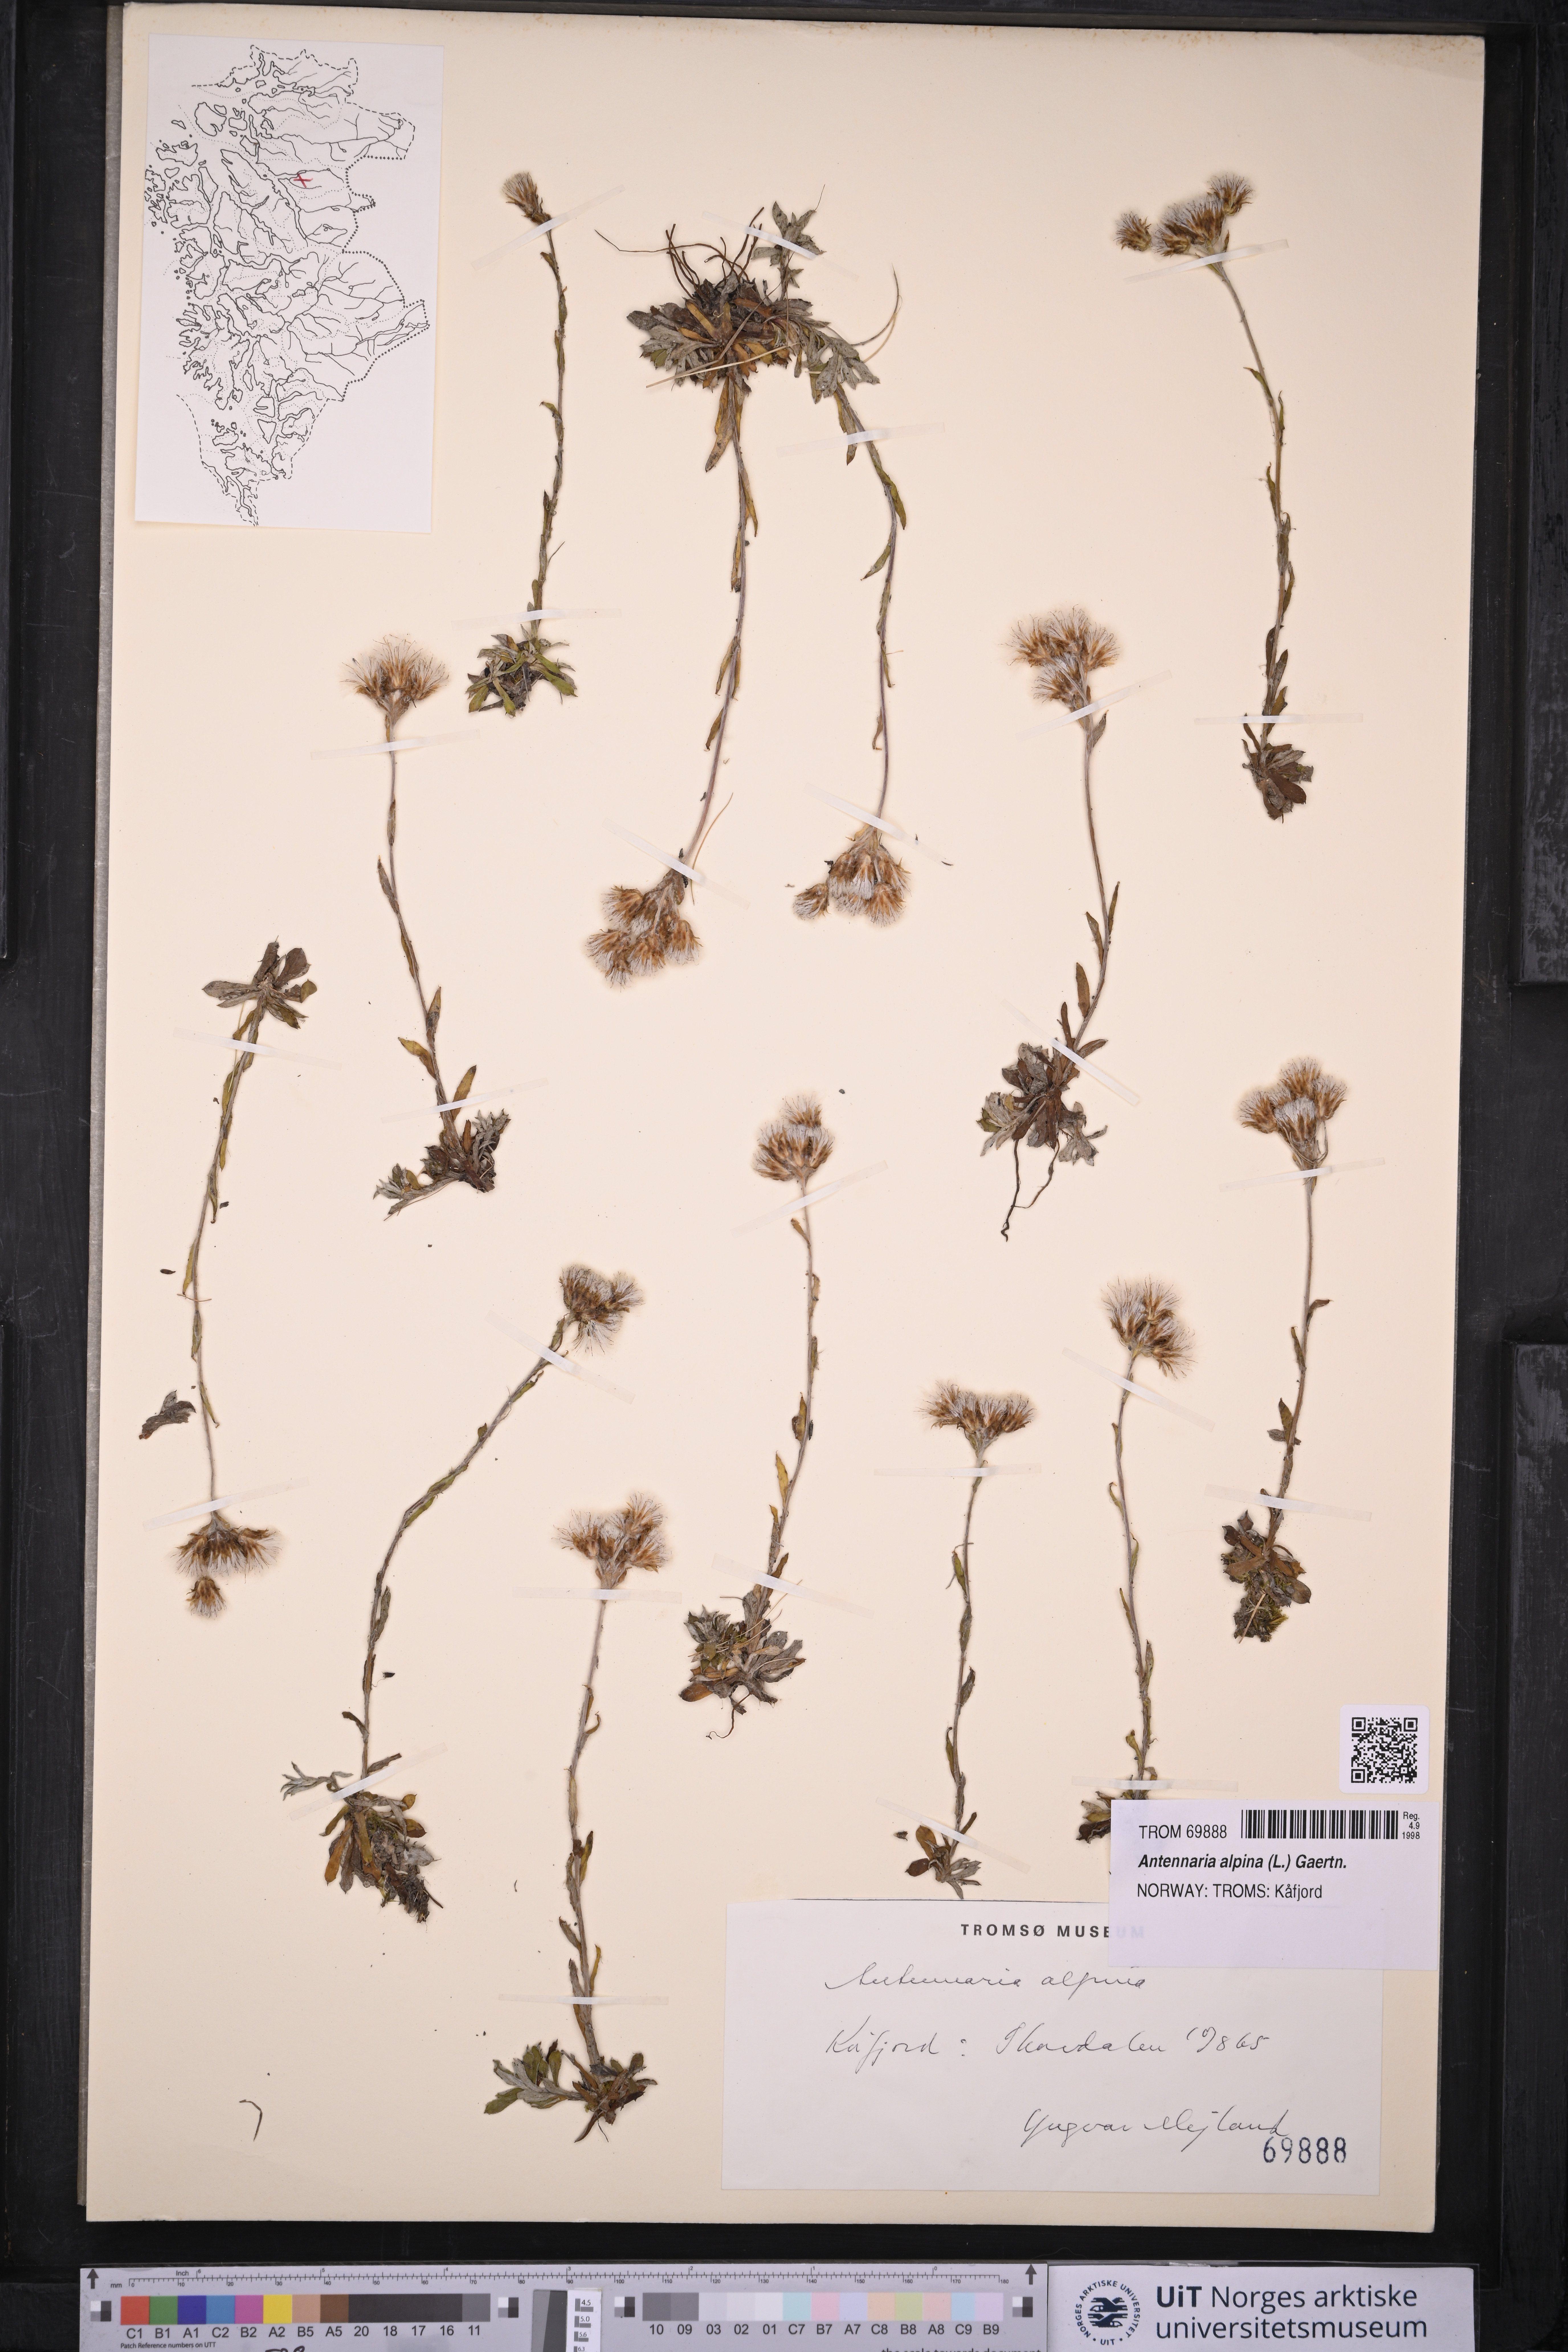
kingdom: Plantae
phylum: Tracheophyta
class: Magnoliopsida
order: Asterales
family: Asteraceae
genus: Antennaria
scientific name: Antennaria alpina
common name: Alpine pussytoes
